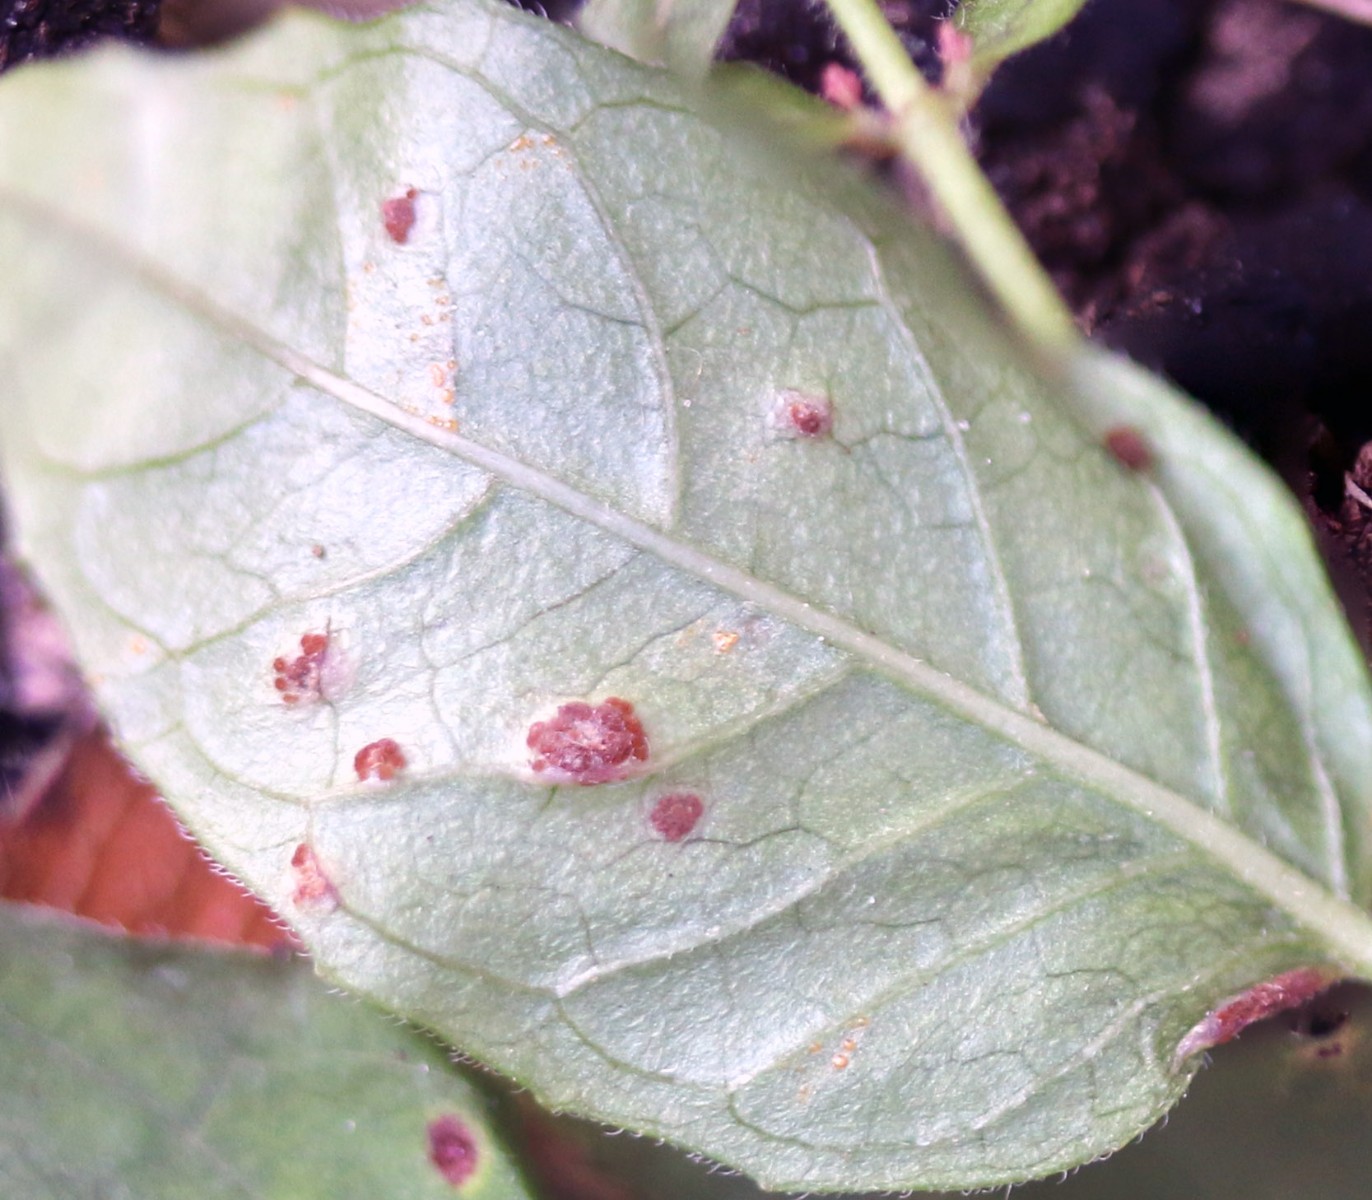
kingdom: Fungi
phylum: Basidiomycota
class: Pucciniomycetes
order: Pucciniales
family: Pucciniaceae
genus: Puccinia
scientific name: Puccinia circaeae
